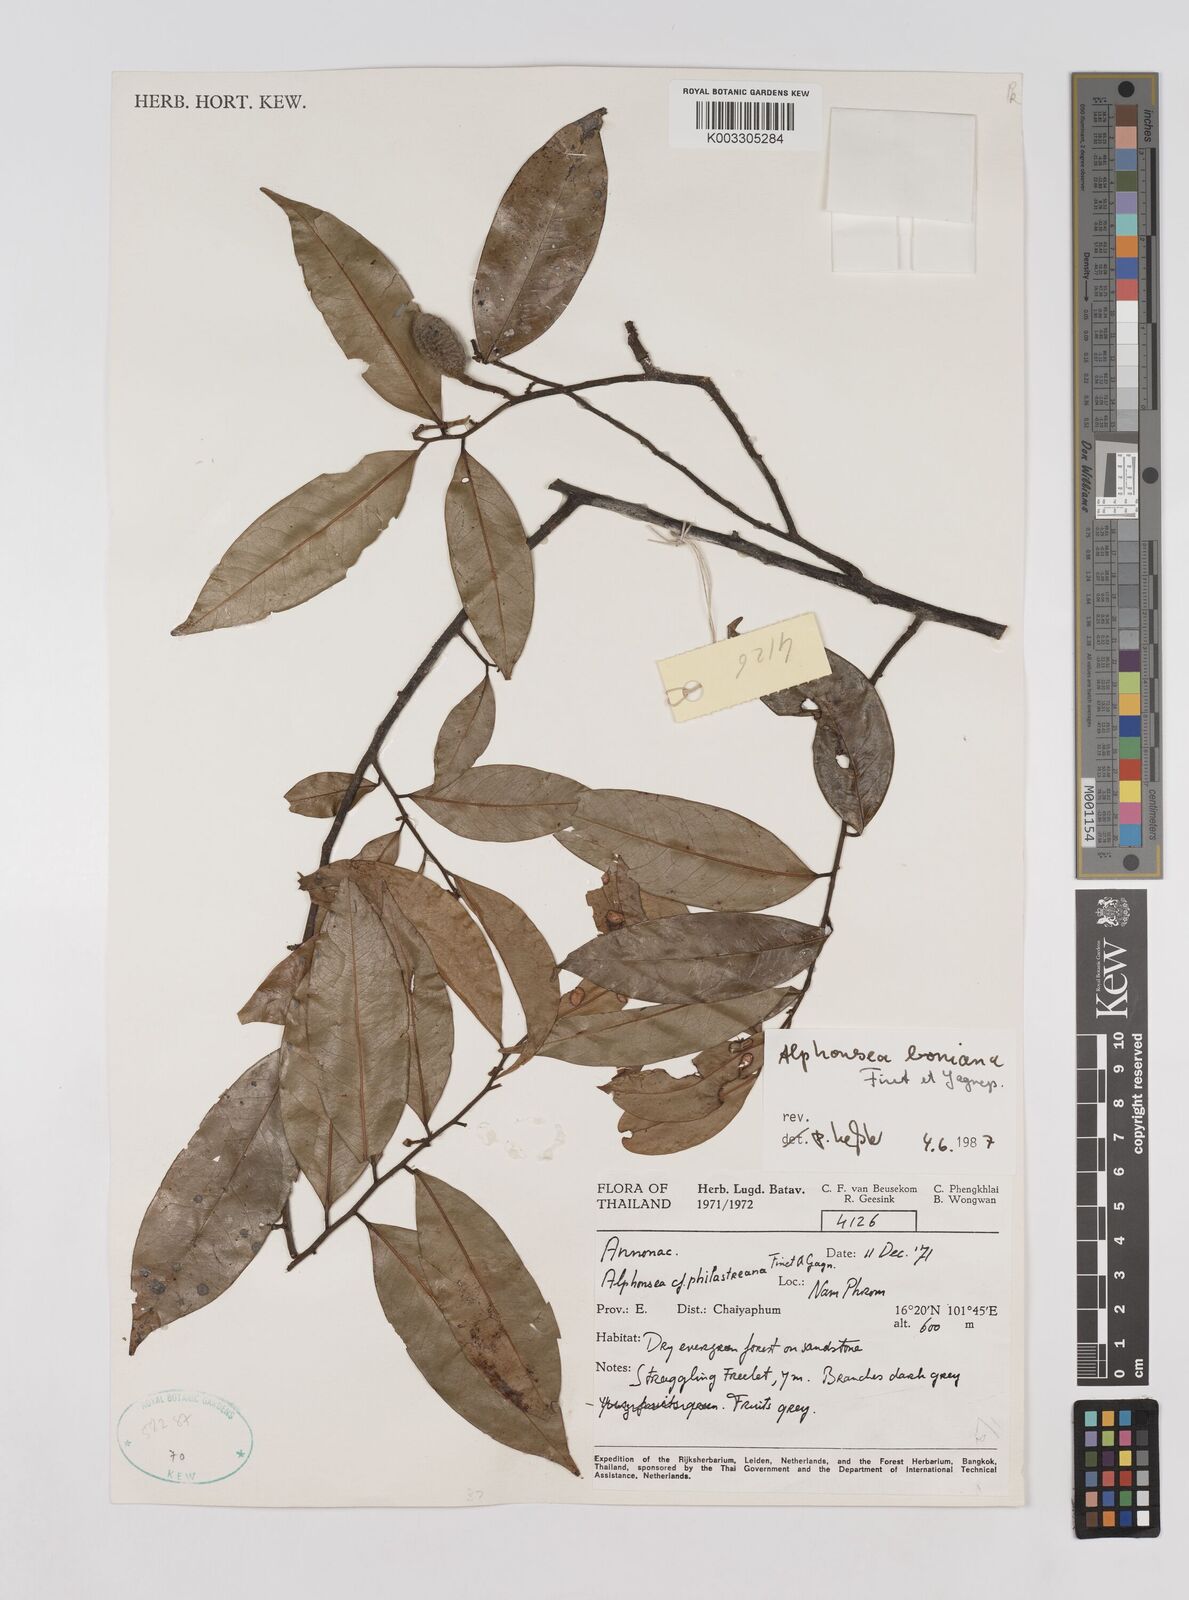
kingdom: Plantae
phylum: Tracheophyta
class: Magnoliopsida
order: Magnoliales
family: Annonaceae
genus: Alphonsea
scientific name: Alphonsea boniana
